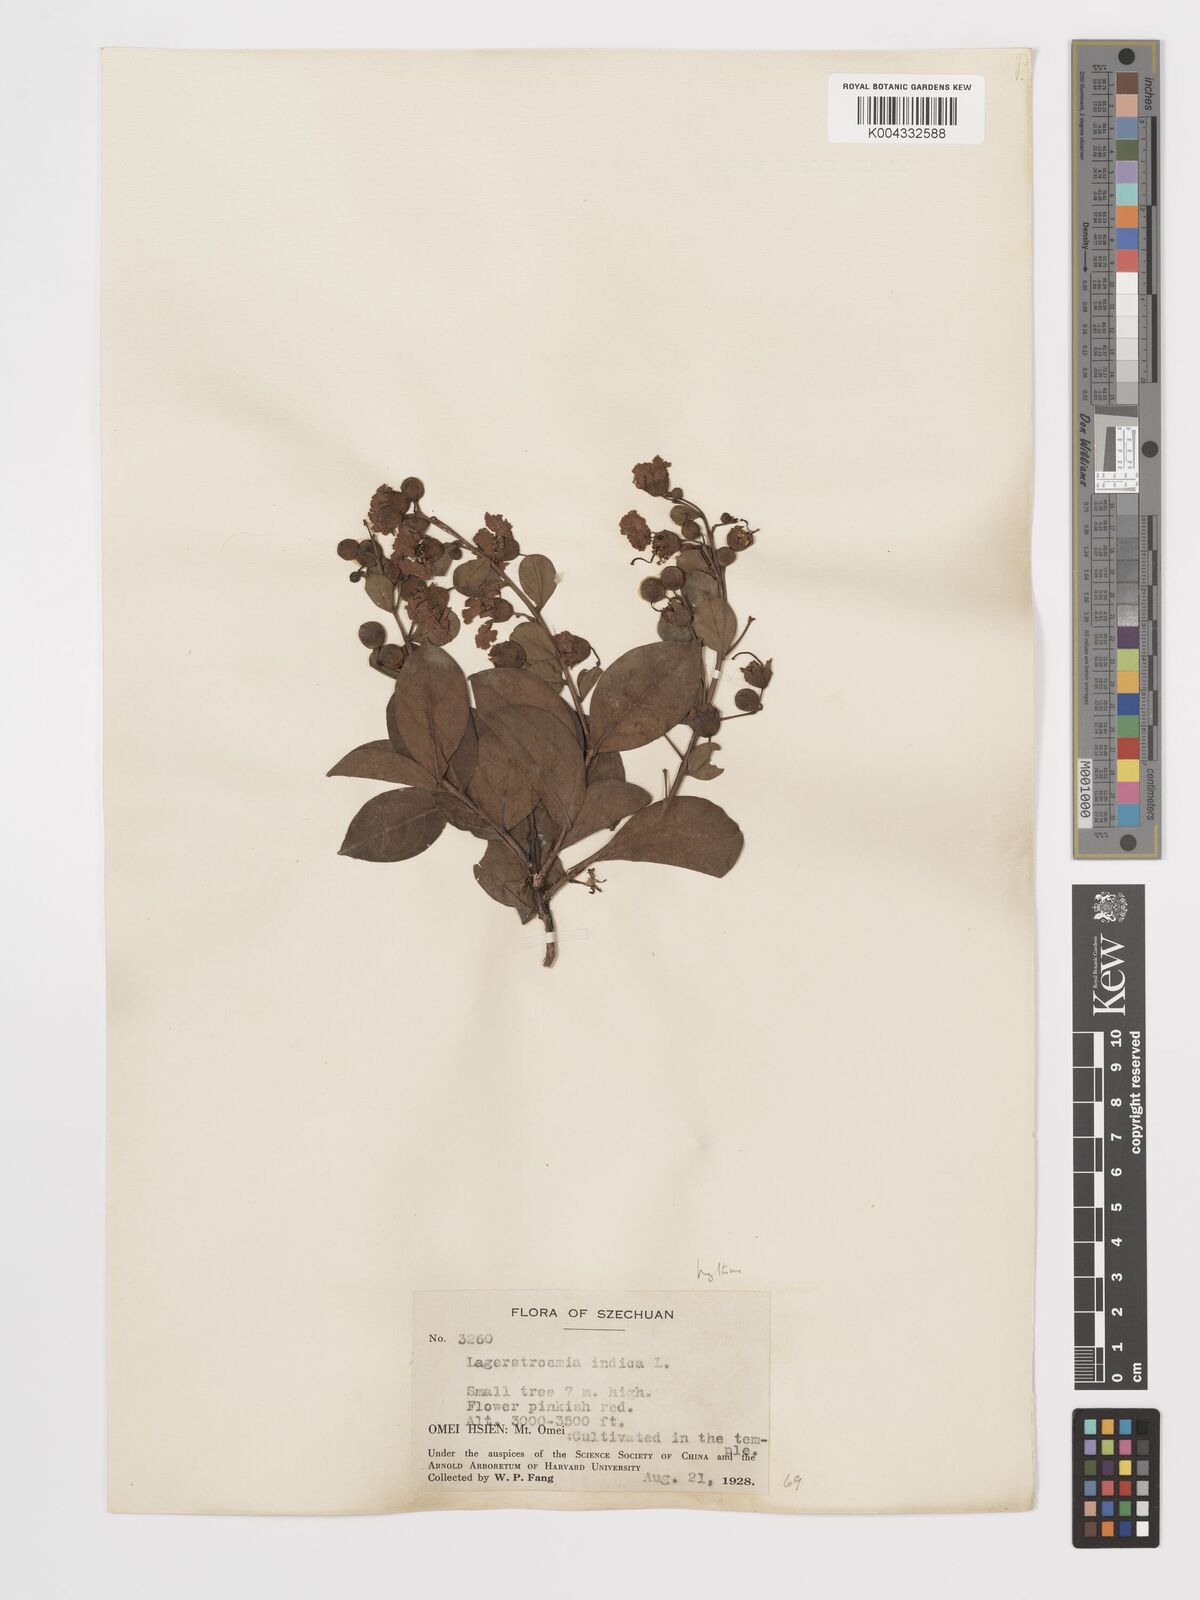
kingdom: Plantae
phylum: Tracheophyta
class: Magnoliopsida
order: Myrtales
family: Lythraceae
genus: Lagerstroemia
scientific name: Lagerstroemia indica
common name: Crape-myrtle
